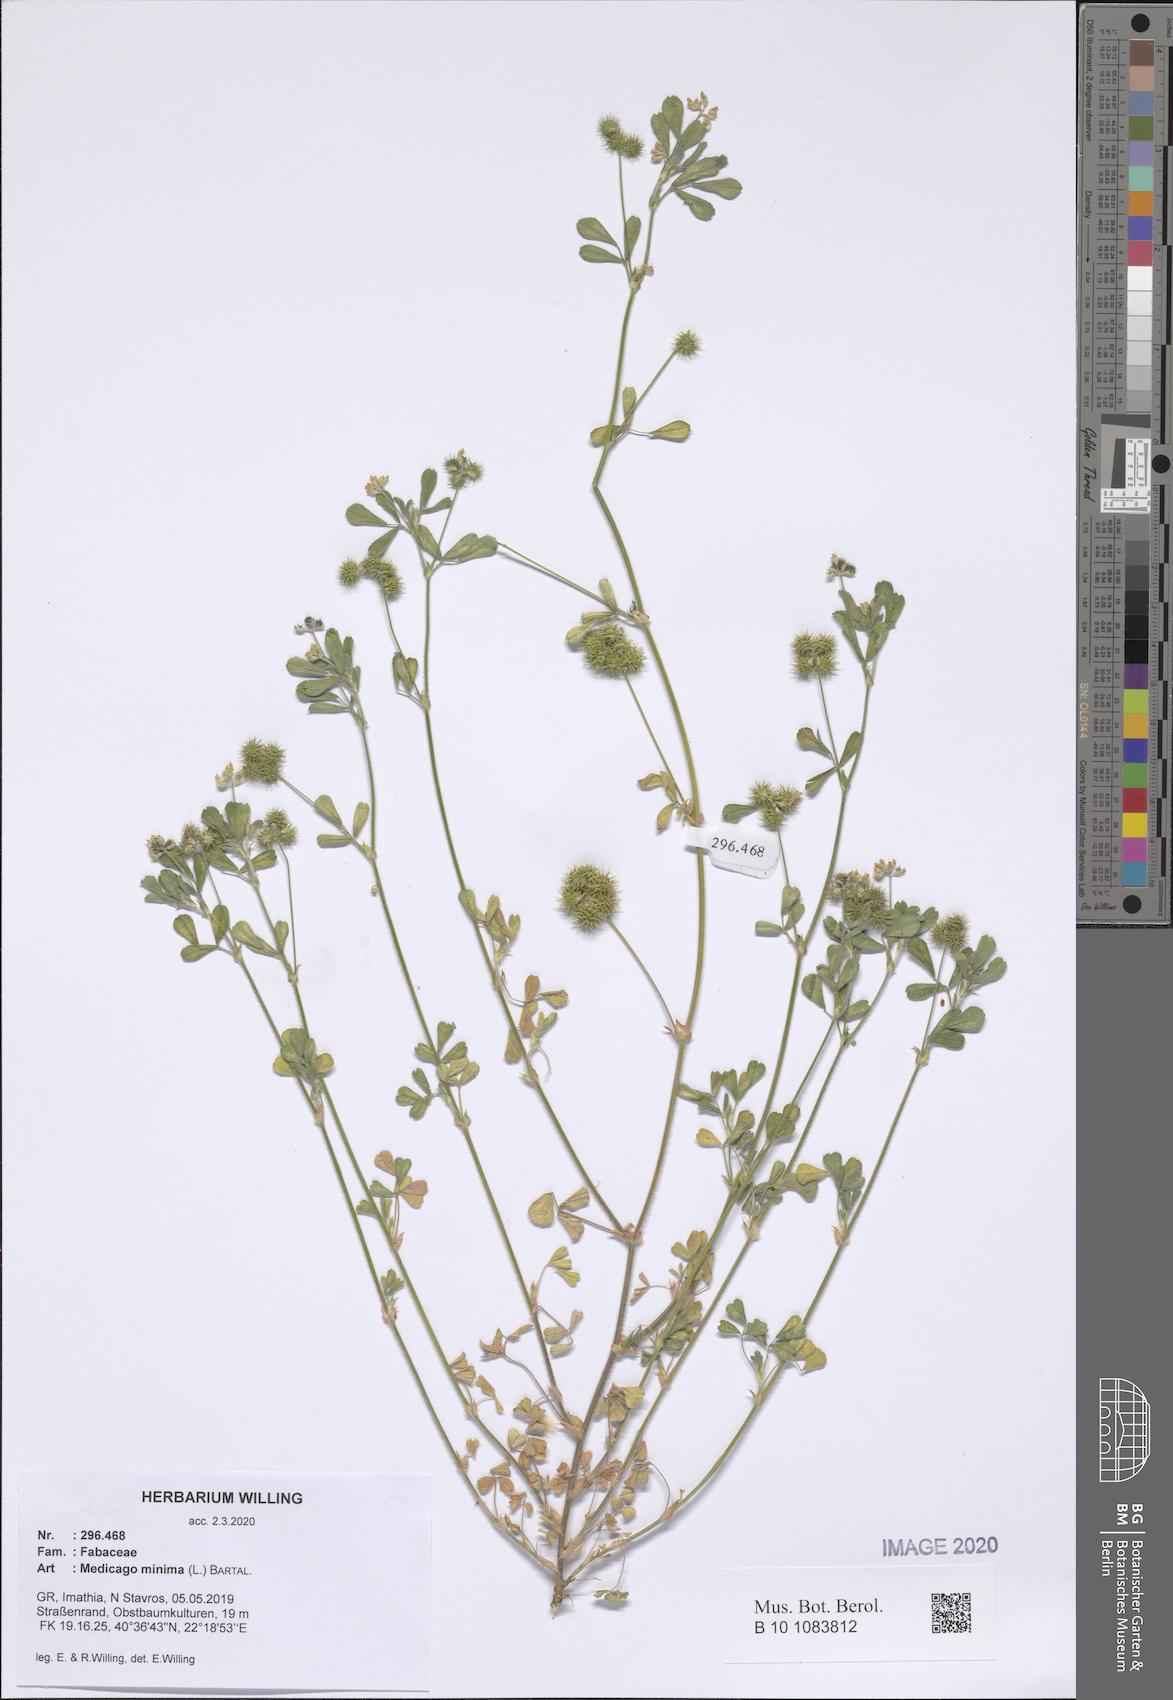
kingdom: Plantae
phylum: Tracheophyta
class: Magnoliopsida
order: Fabales
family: Fabaceae
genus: Medicago
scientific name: Medicago minima
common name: Little bur-clover
